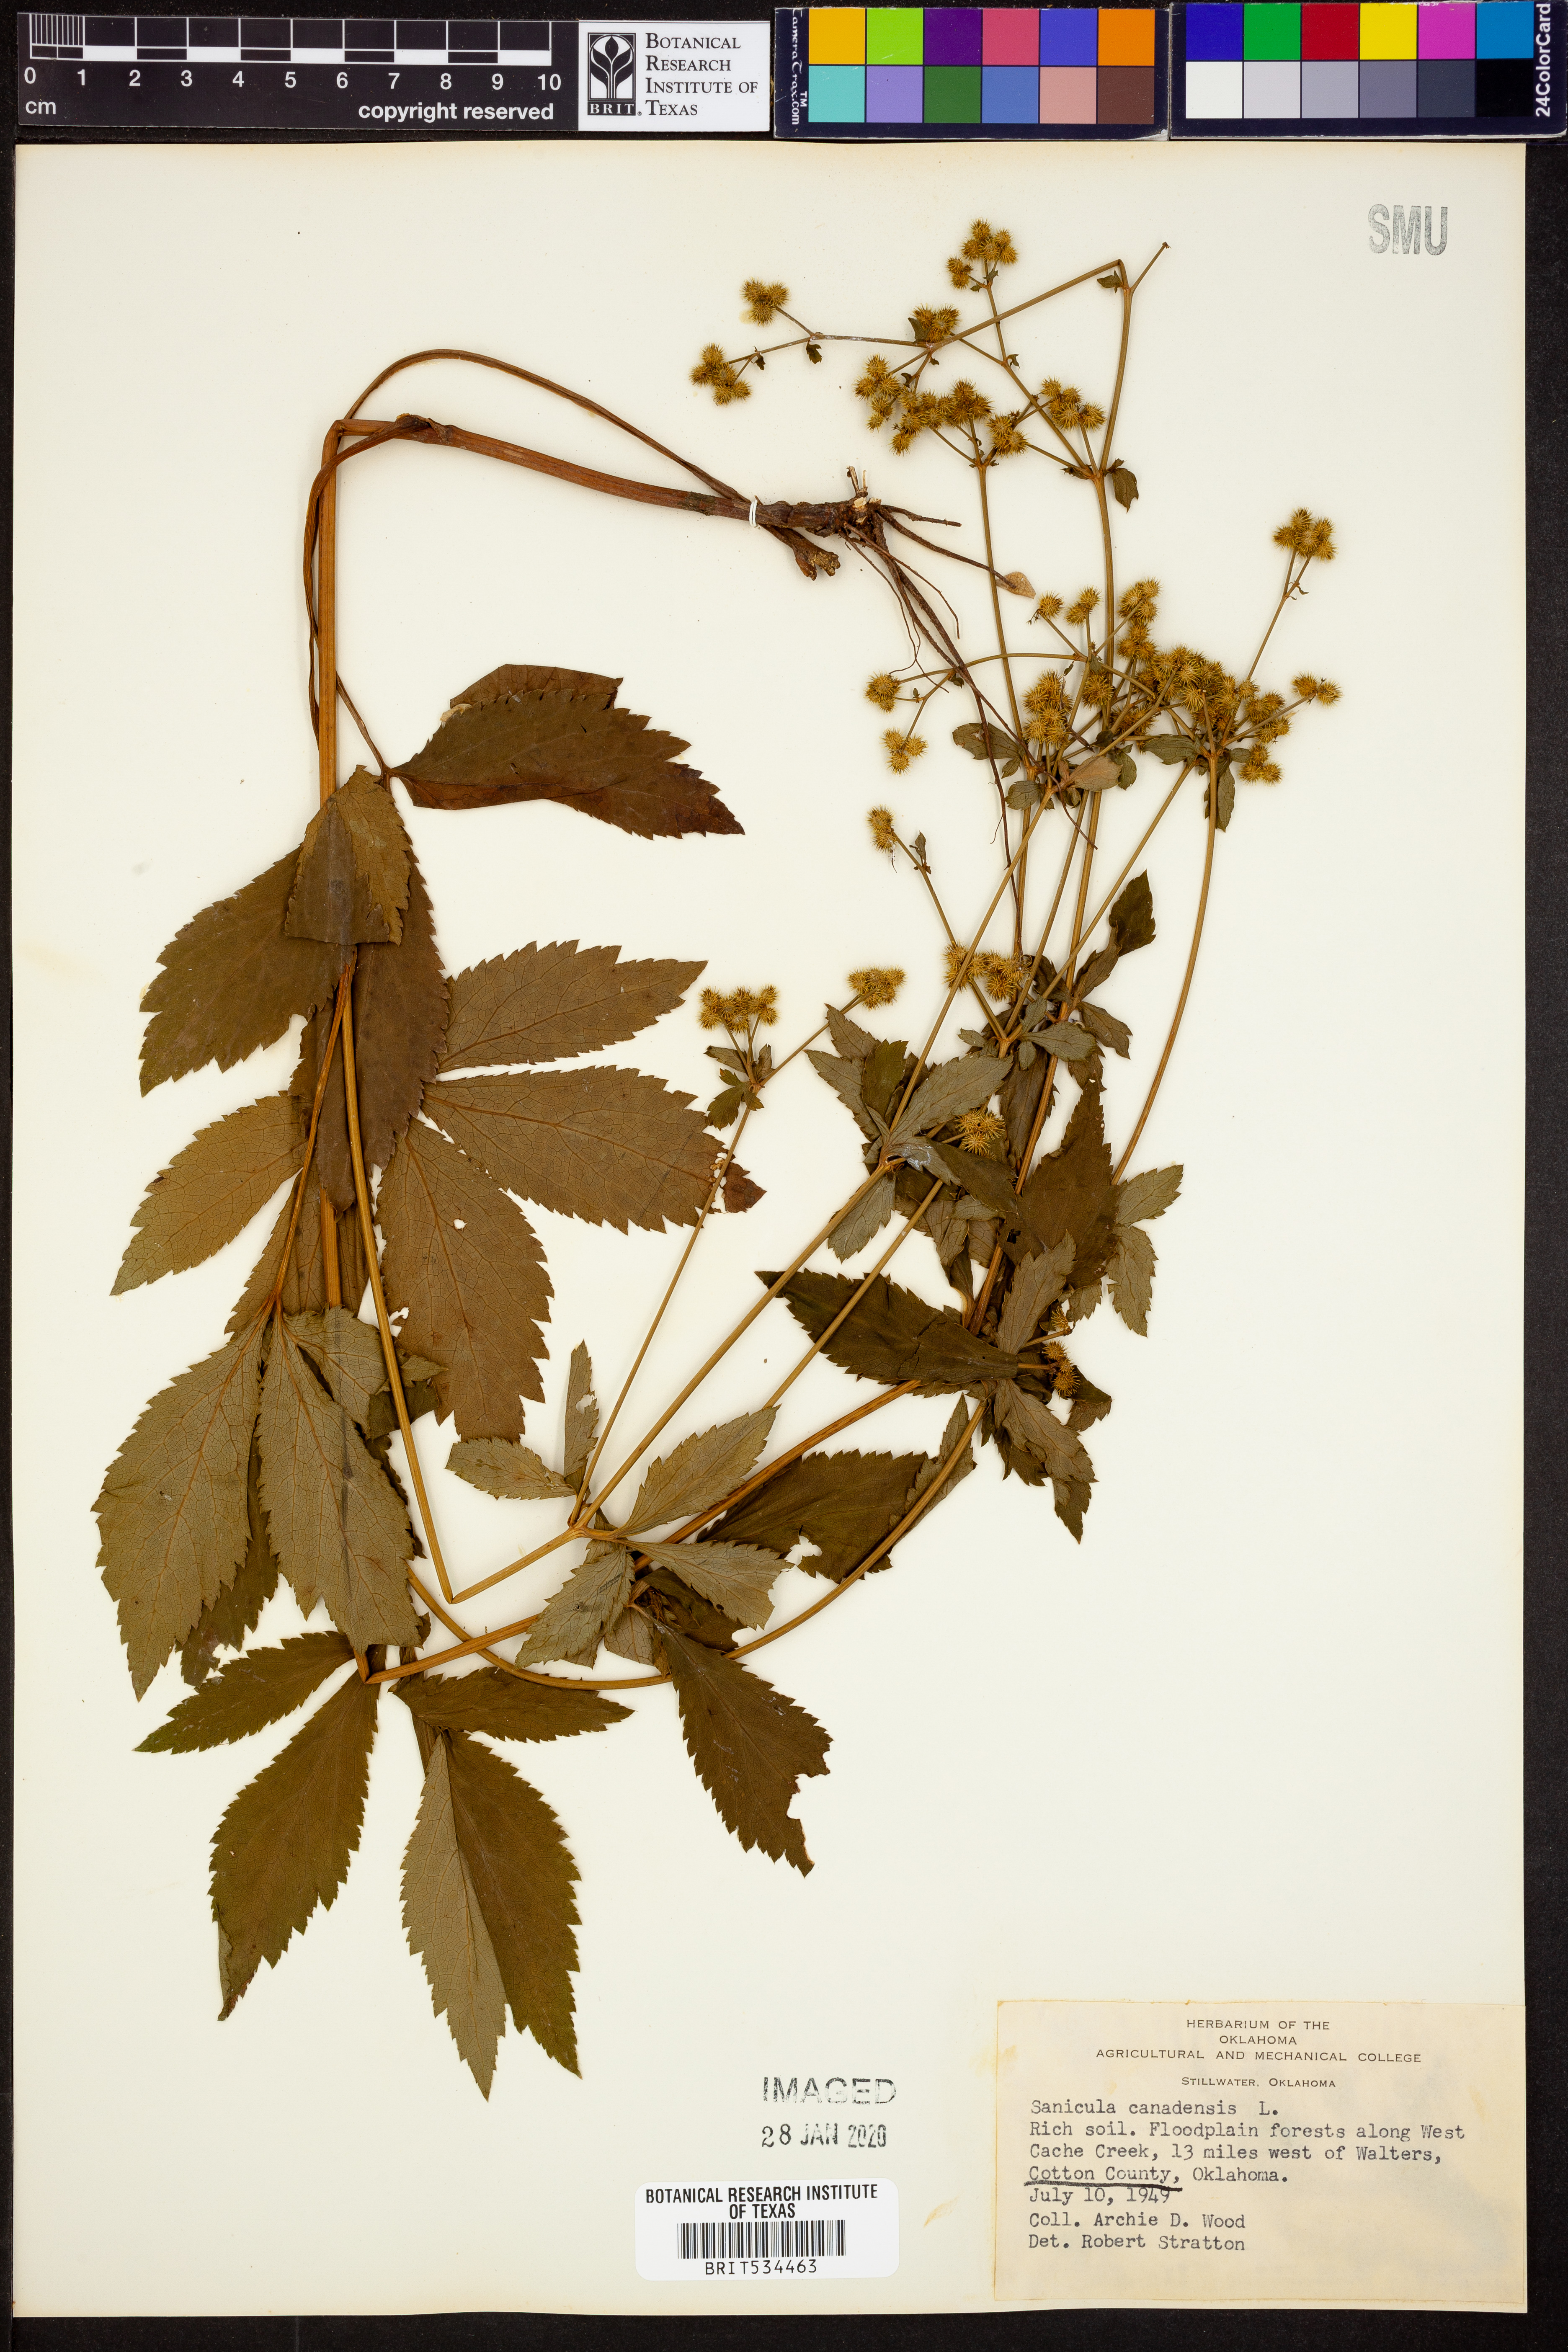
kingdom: Plantae
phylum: Tracheophyta
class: Magnoliopsida
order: Apiales
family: Apiaceae
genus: Sanicula
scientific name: Sanicula canadensis
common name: Canada sanicle
